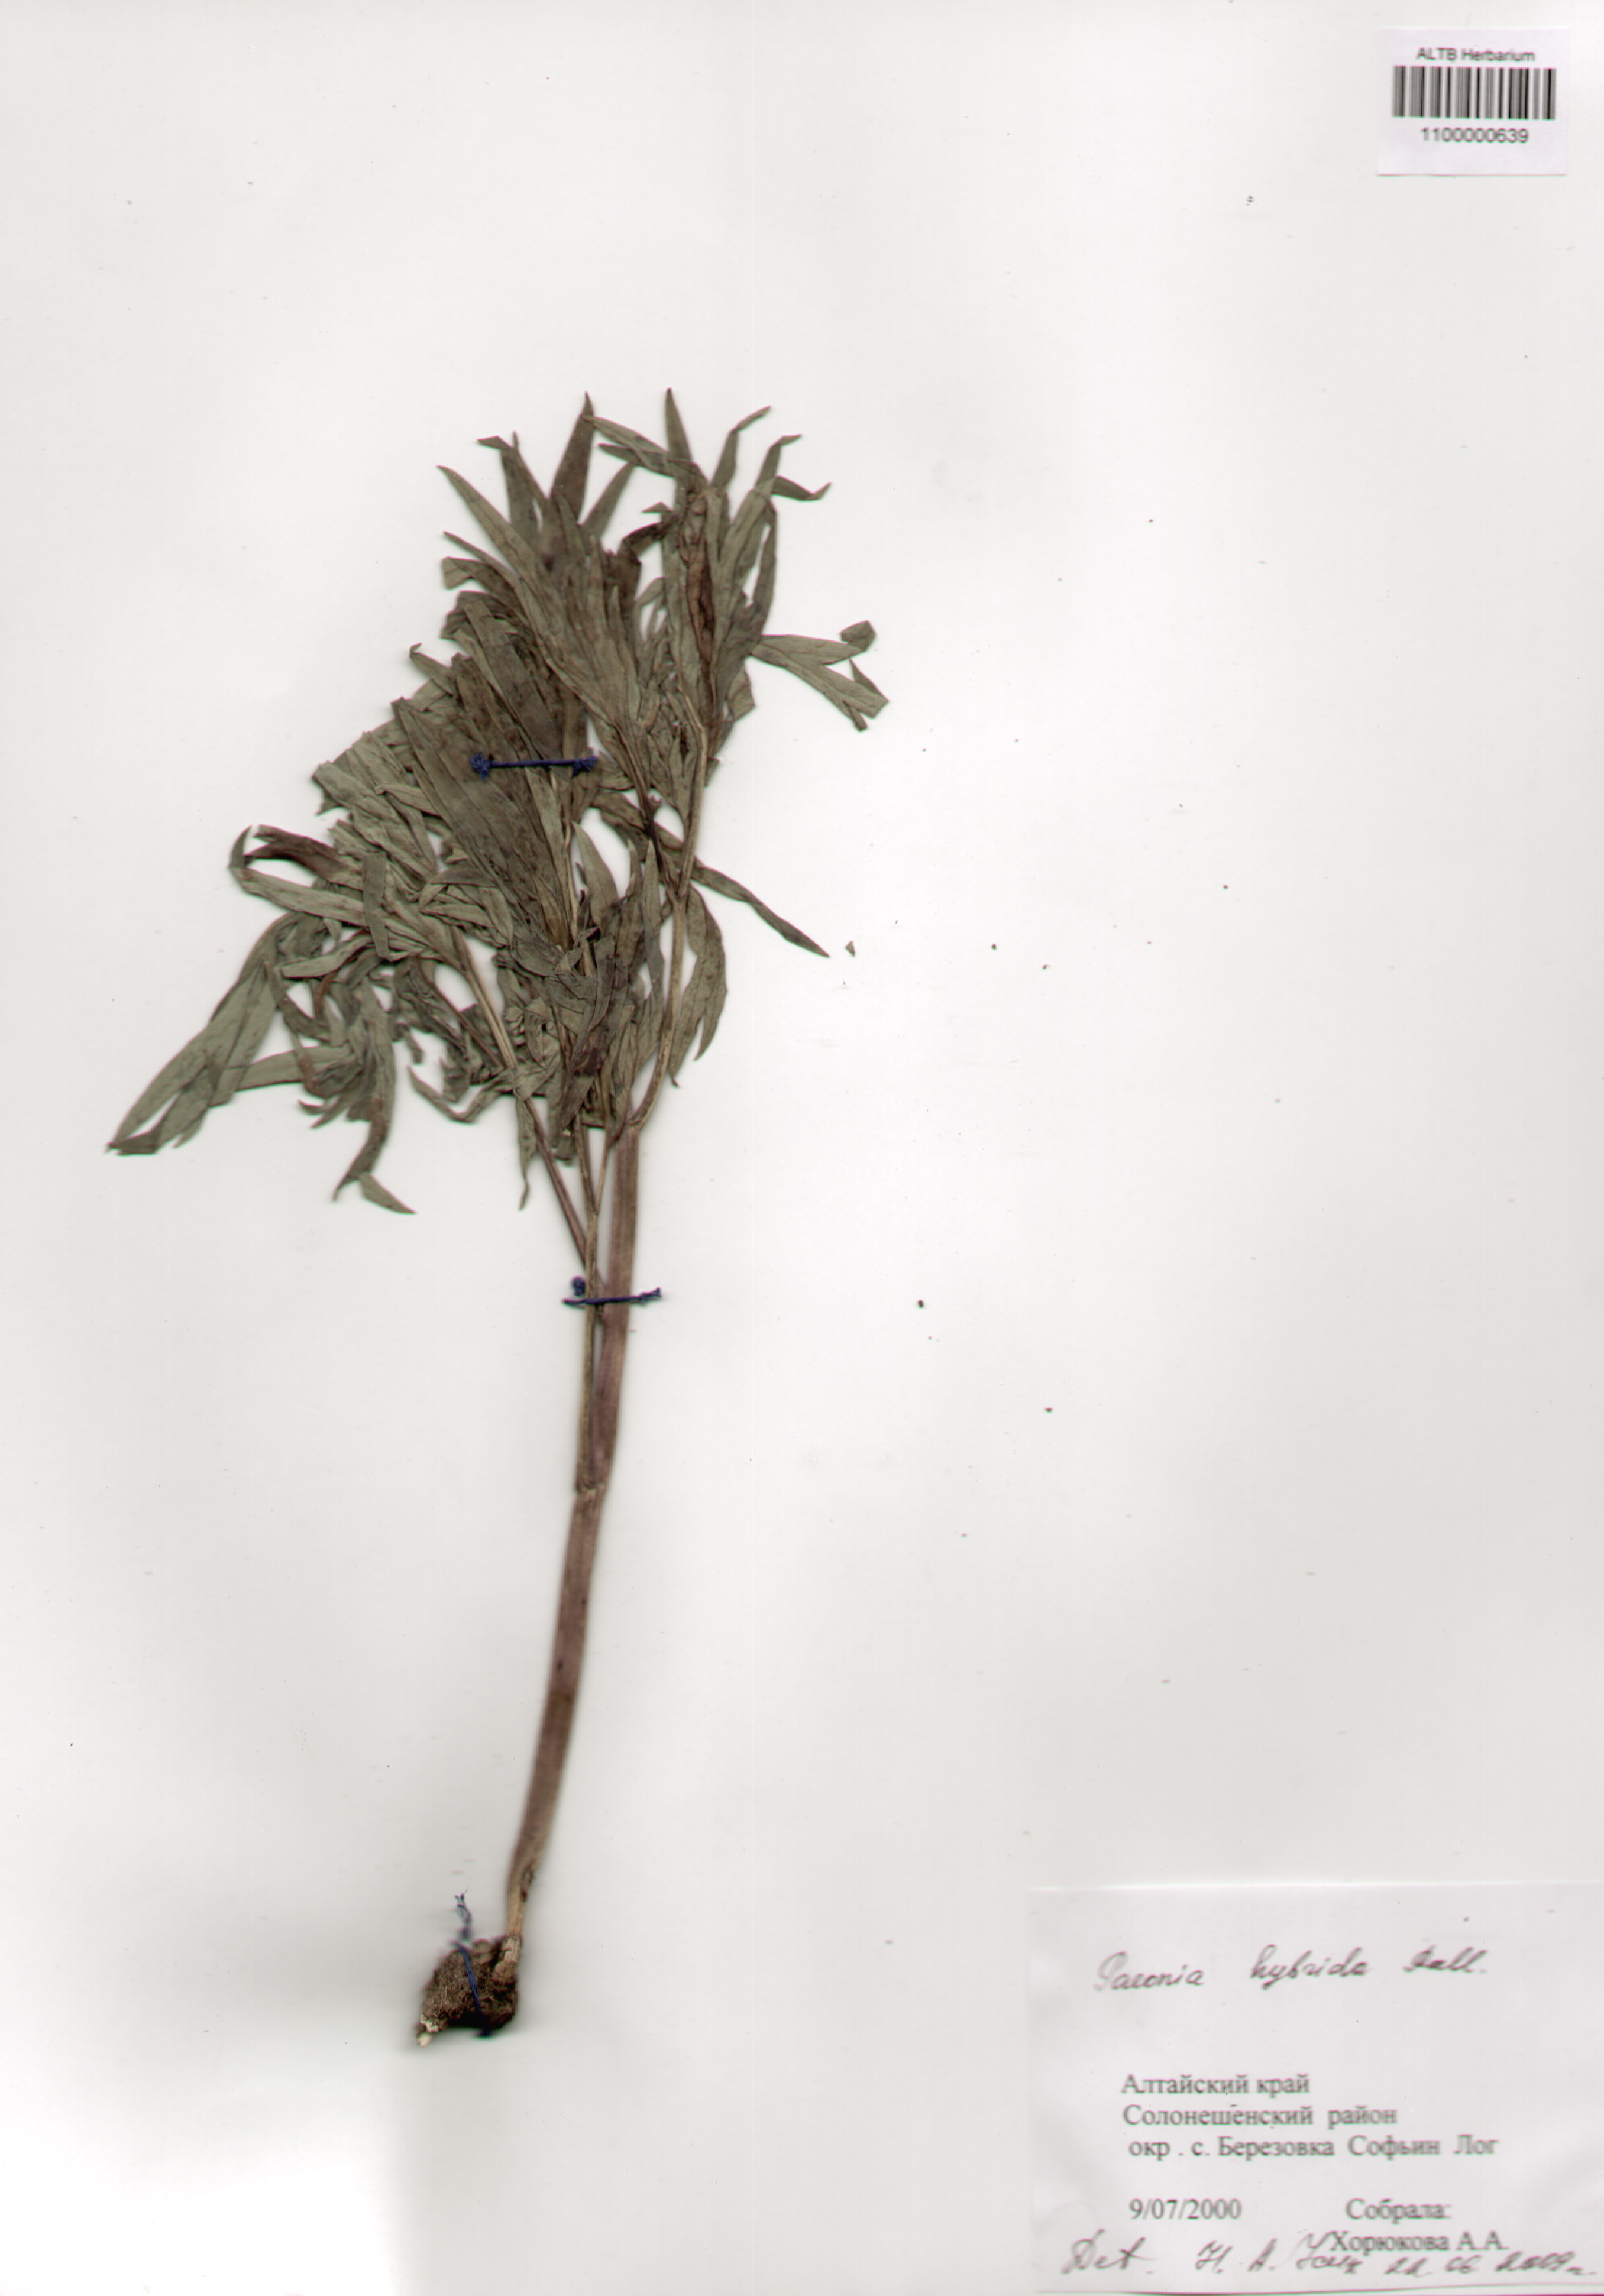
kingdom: Plantae
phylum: Tracheophyta
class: Magnoliopsida
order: Saxifragales
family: Paeoniaceae
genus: Paeonia
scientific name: Paeonia
